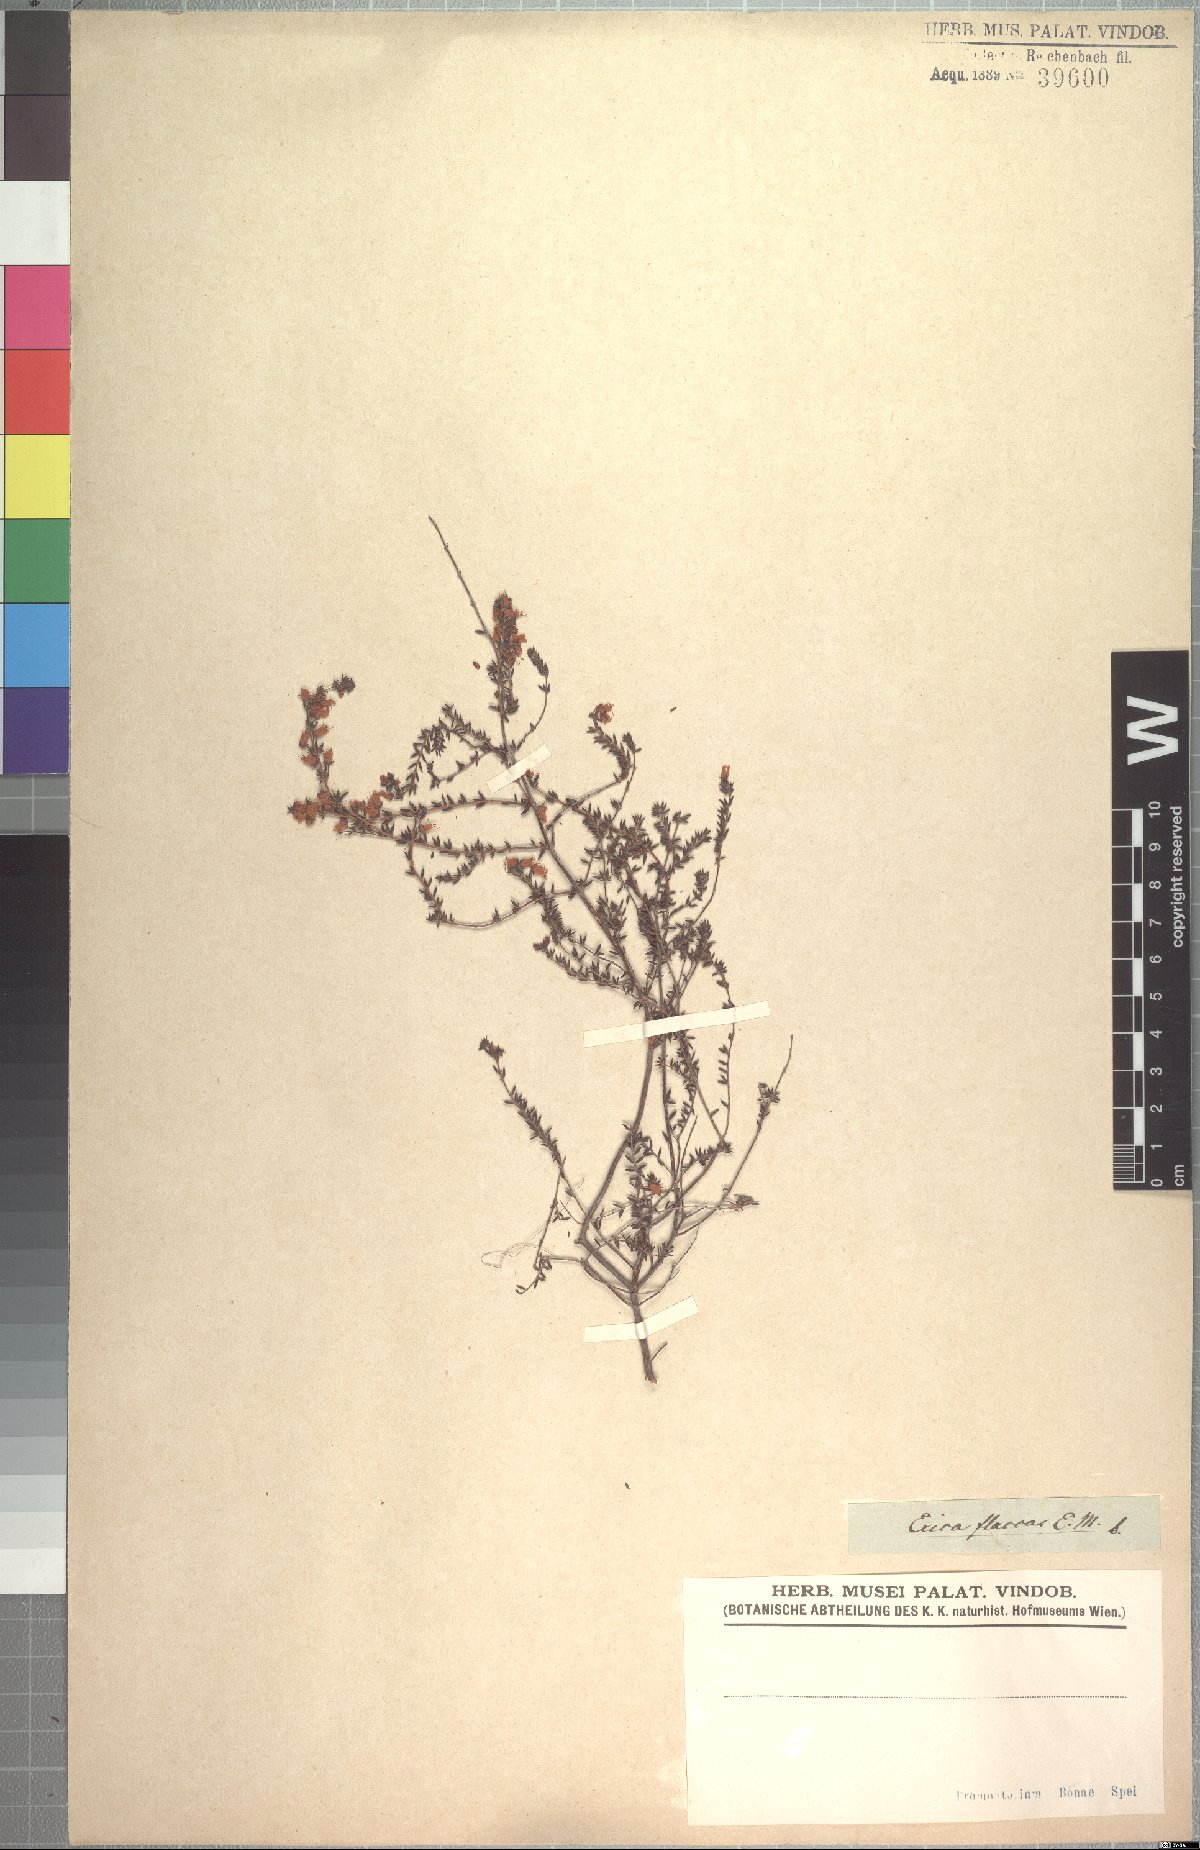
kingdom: Plantae
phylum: Tracheophyta
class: Magnoliopsida
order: Ericales
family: Ericaceae
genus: Erica
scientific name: Erica flacca
